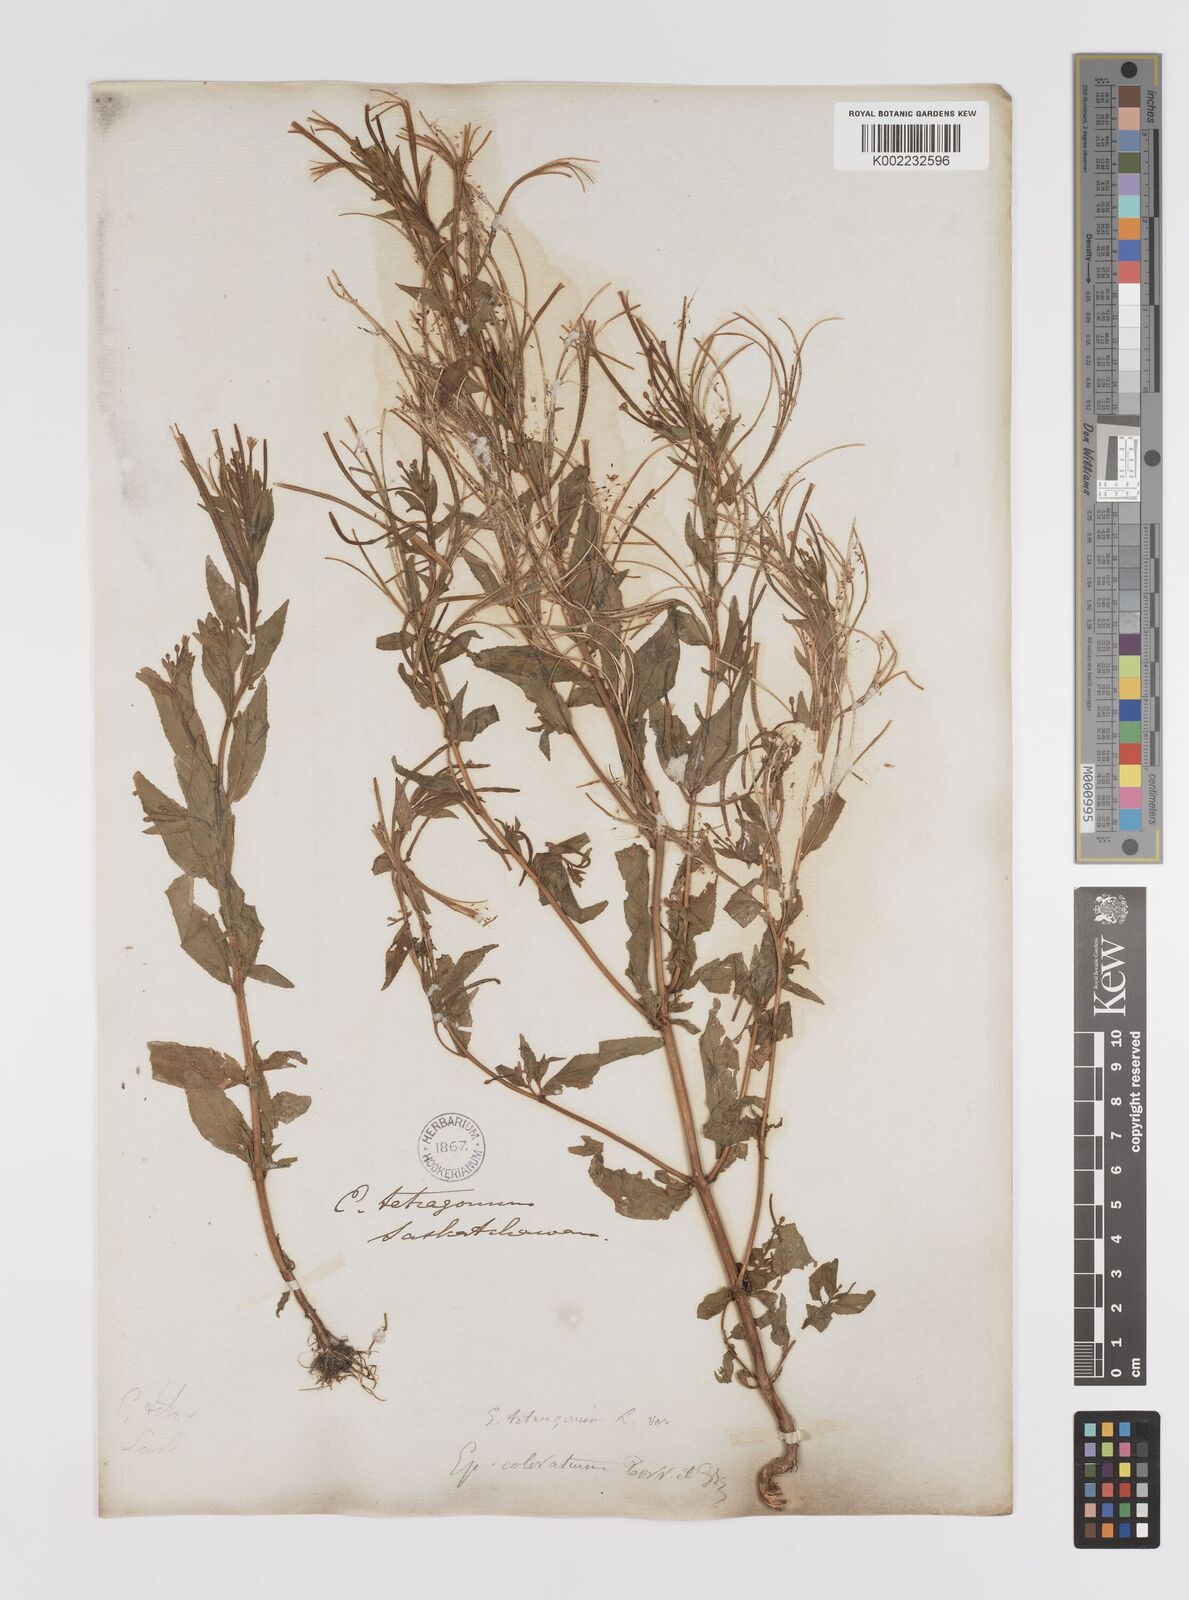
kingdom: Plantae
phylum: Tracheophyta
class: Magnoliopsida
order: Myrtales
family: Onagraceae
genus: Epilobium
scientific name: Epilobium ciliatum
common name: American willowherb
